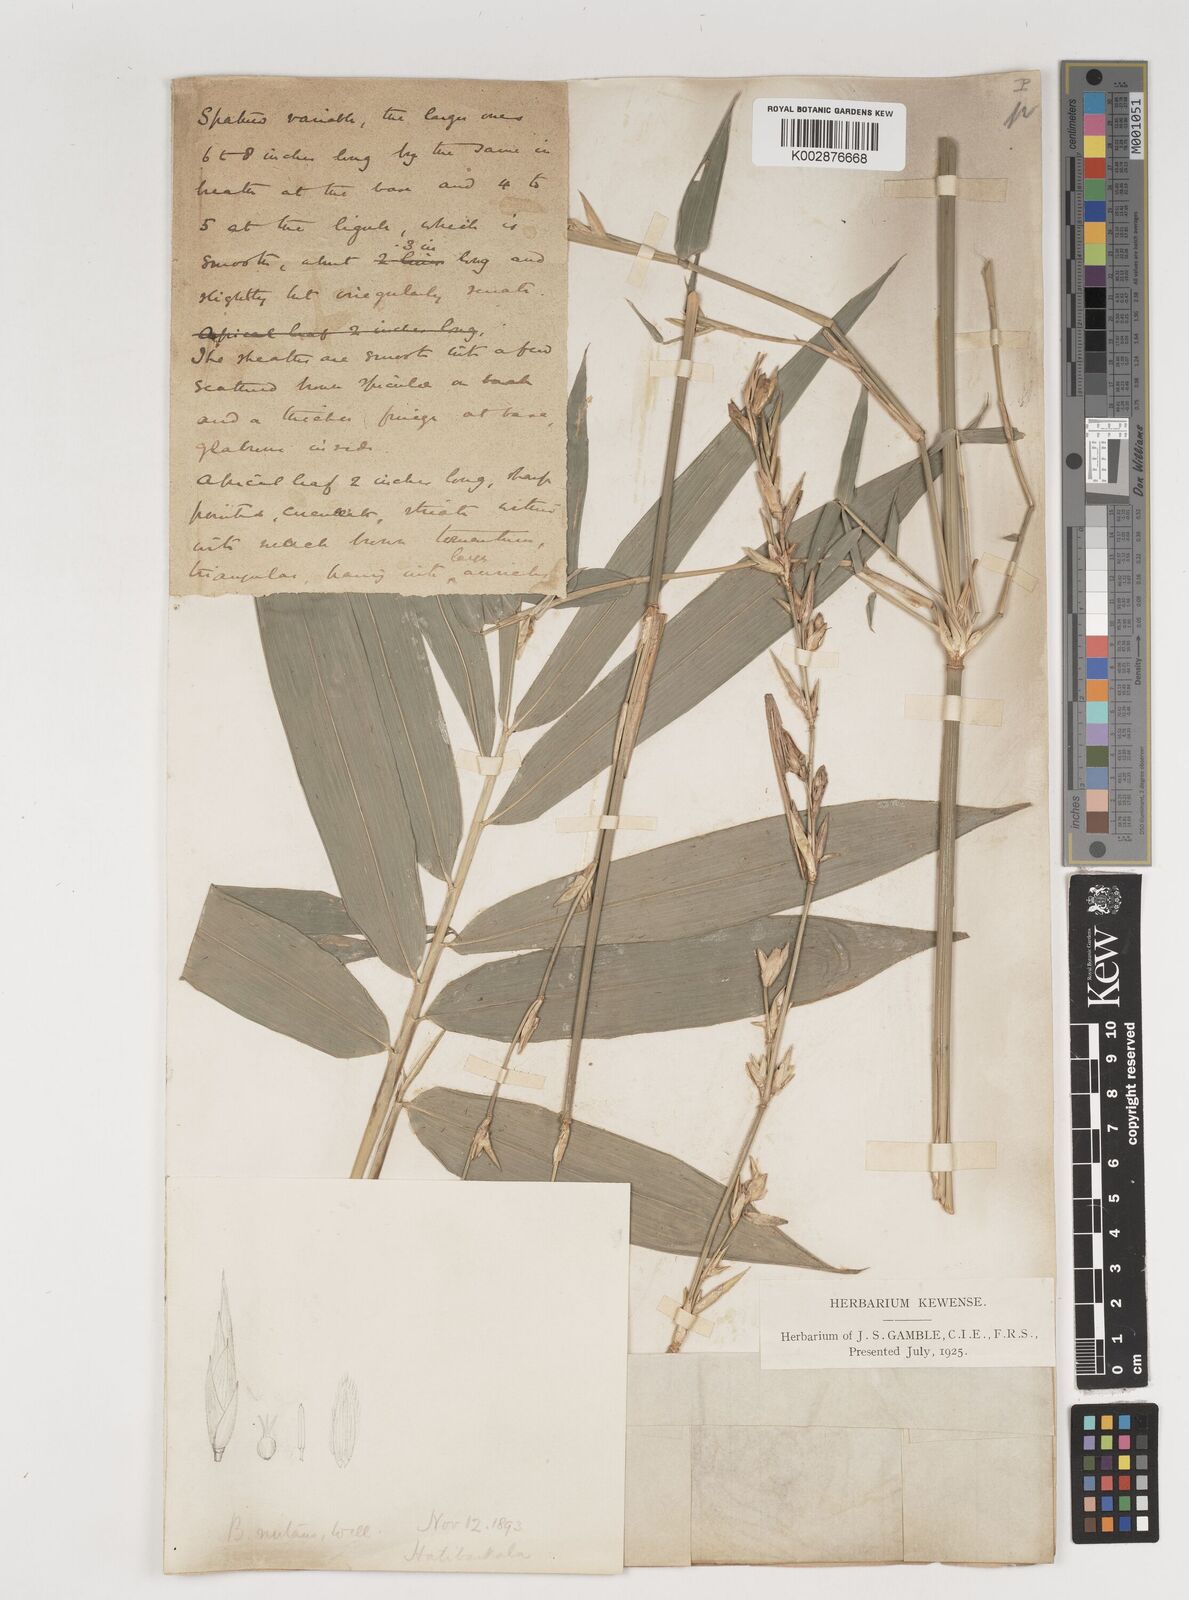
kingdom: Plantae
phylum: Tracheophyta
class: Liliopsida
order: Poales
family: Poaceae
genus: Bambusa
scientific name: Bambusa nutans
